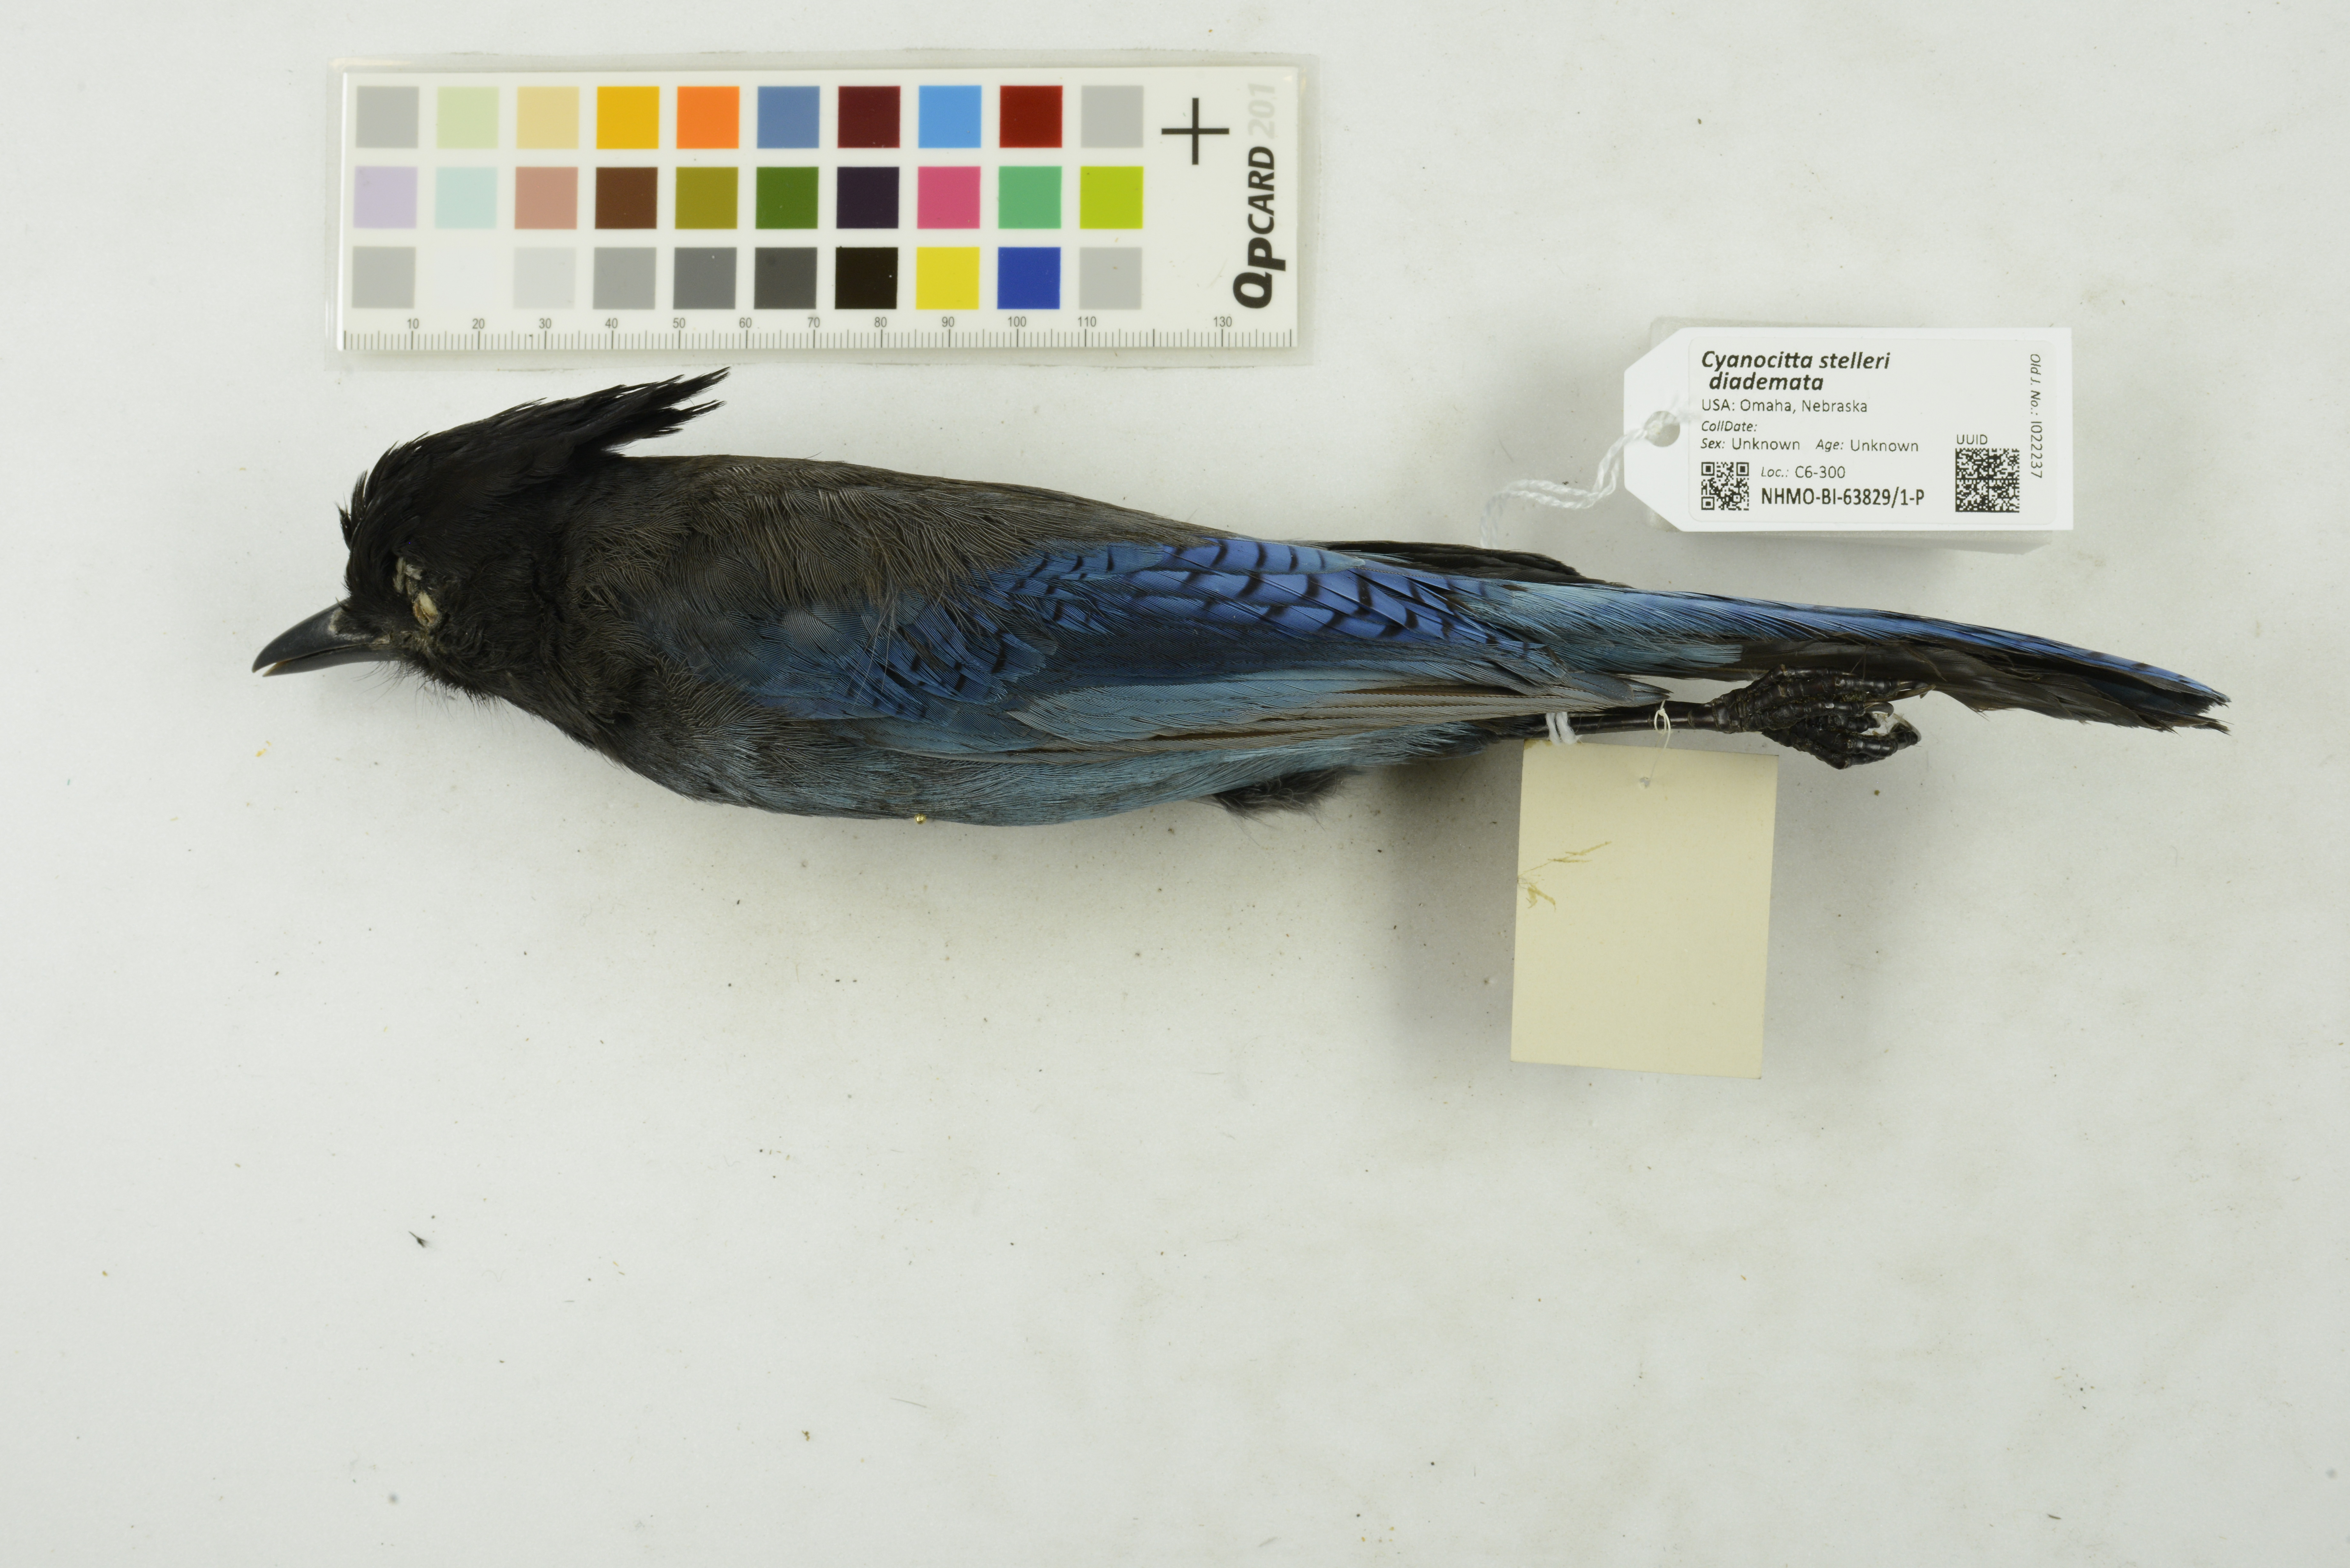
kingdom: Animalia
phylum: Chordata
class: Aves
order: Passeriformes
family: Corvidae
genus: Cyanocitta
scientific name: Cyanocitta stelleri
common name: Steller's jay
